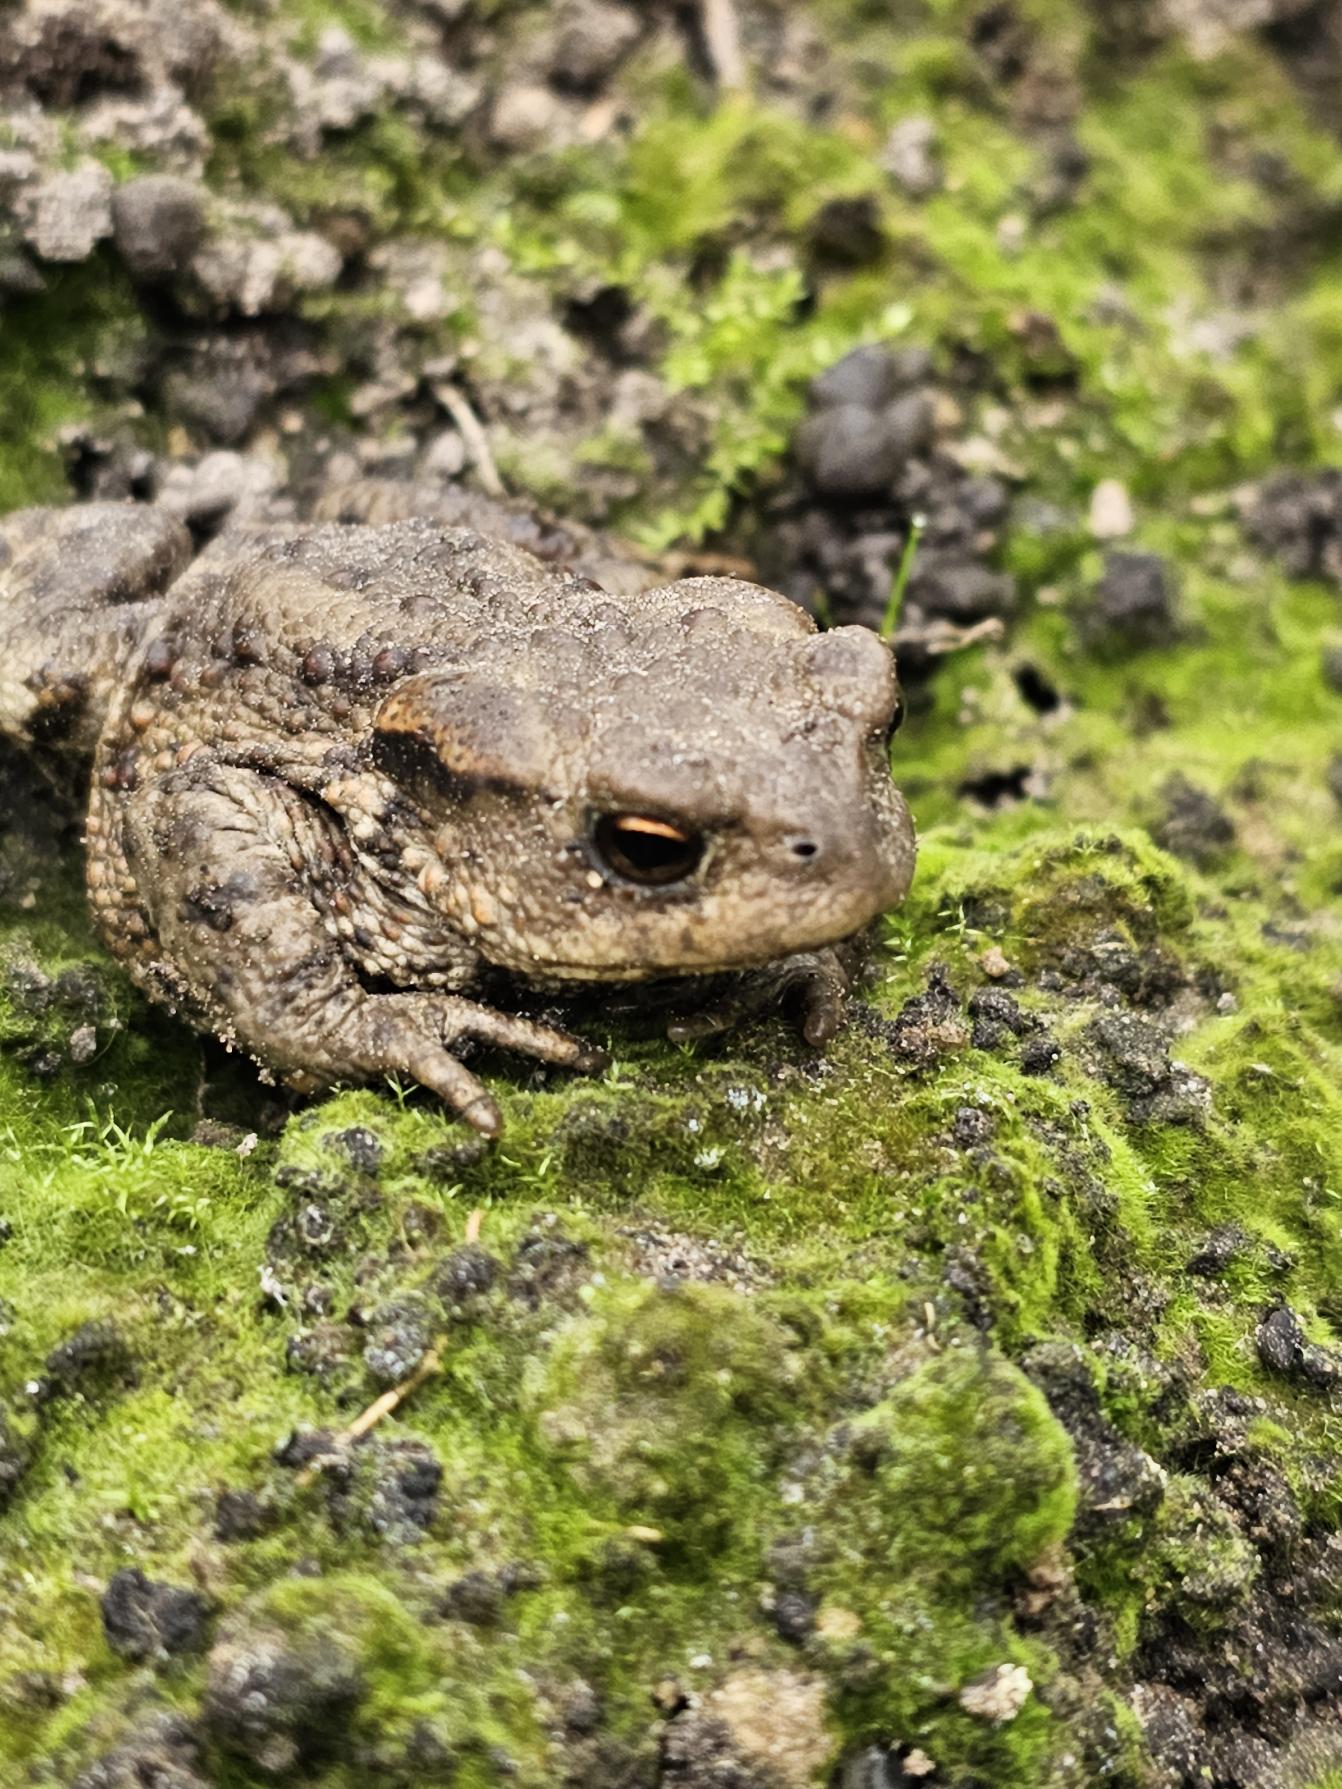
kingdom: Animalia
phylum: Chordata
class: Amphibia
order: Anura
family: Bufonidae
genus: Bufo
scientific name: Bufo bufo
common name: Skrubtudse
